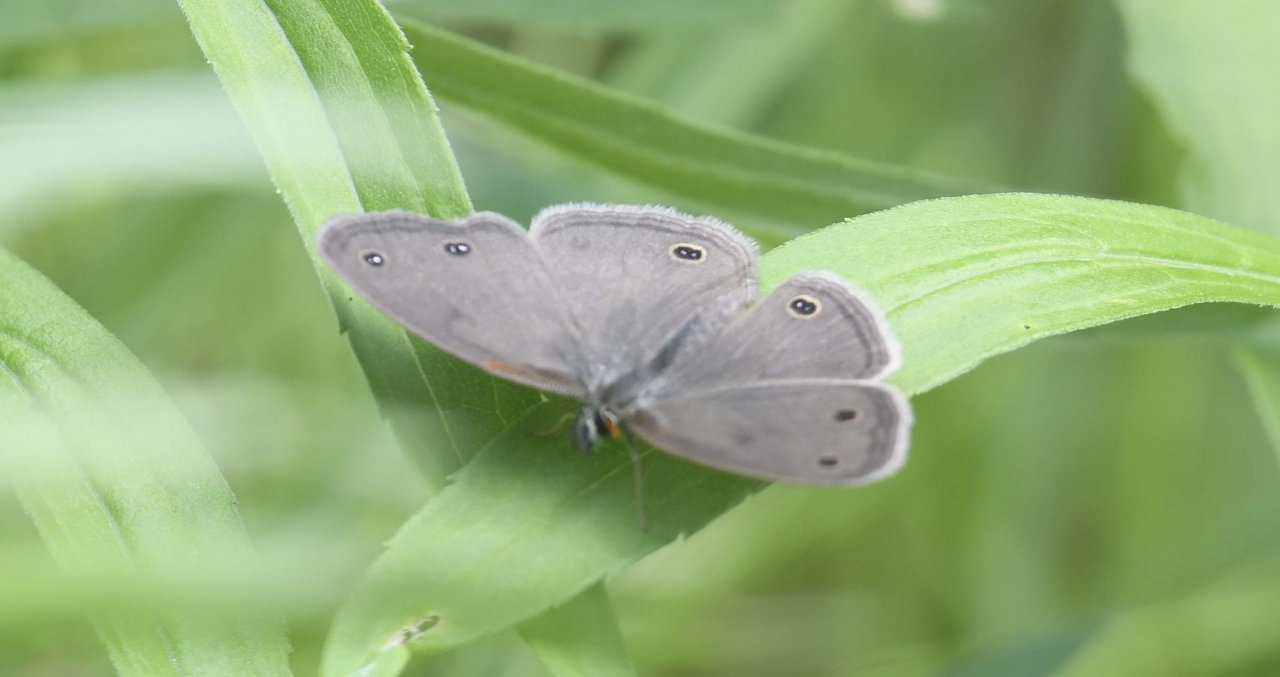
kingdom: Animalia
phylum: Arthropoda
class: Insecta
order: Lepidoptera
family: Nymphalidae
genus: Euptychia
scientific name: Euptychia cymela
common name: Little Wood Satyr
